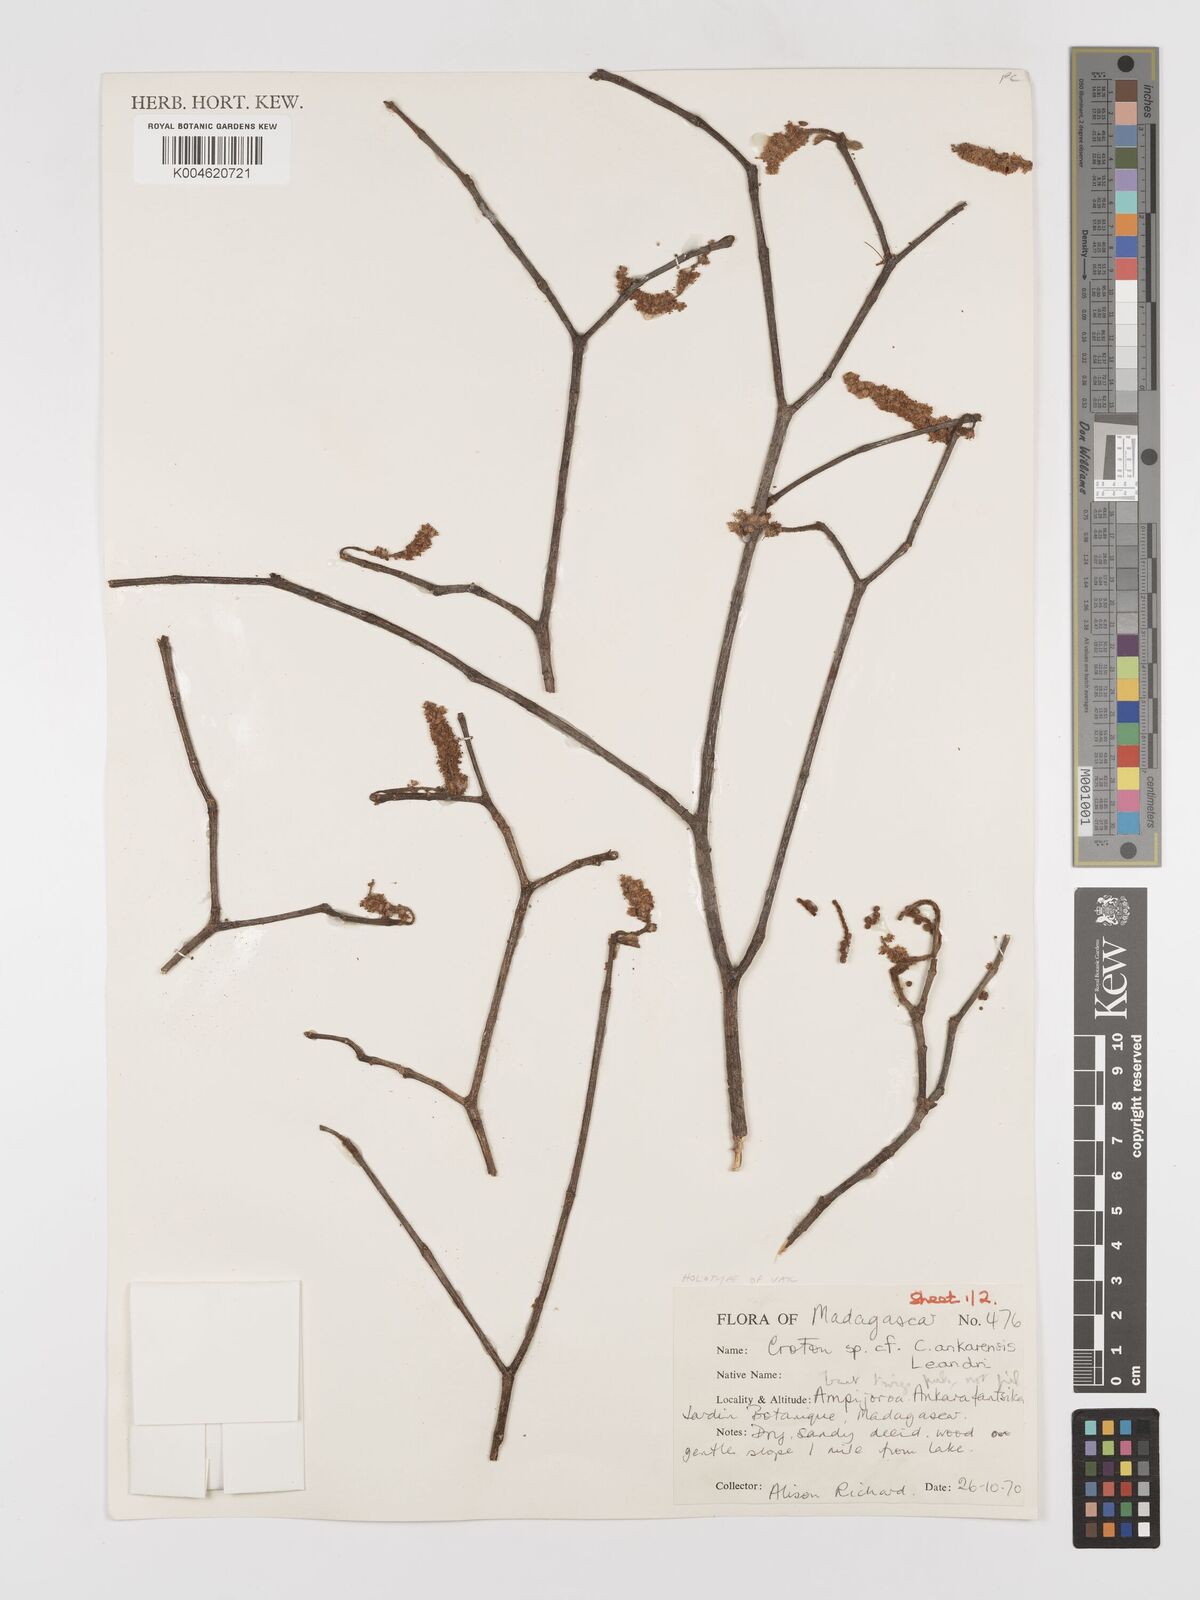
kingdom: Plantae
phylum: Tracheophyta
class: Magnoliopsida
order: Malpighiales
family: Euphorbiaceae
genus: Croton
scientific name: Croton
